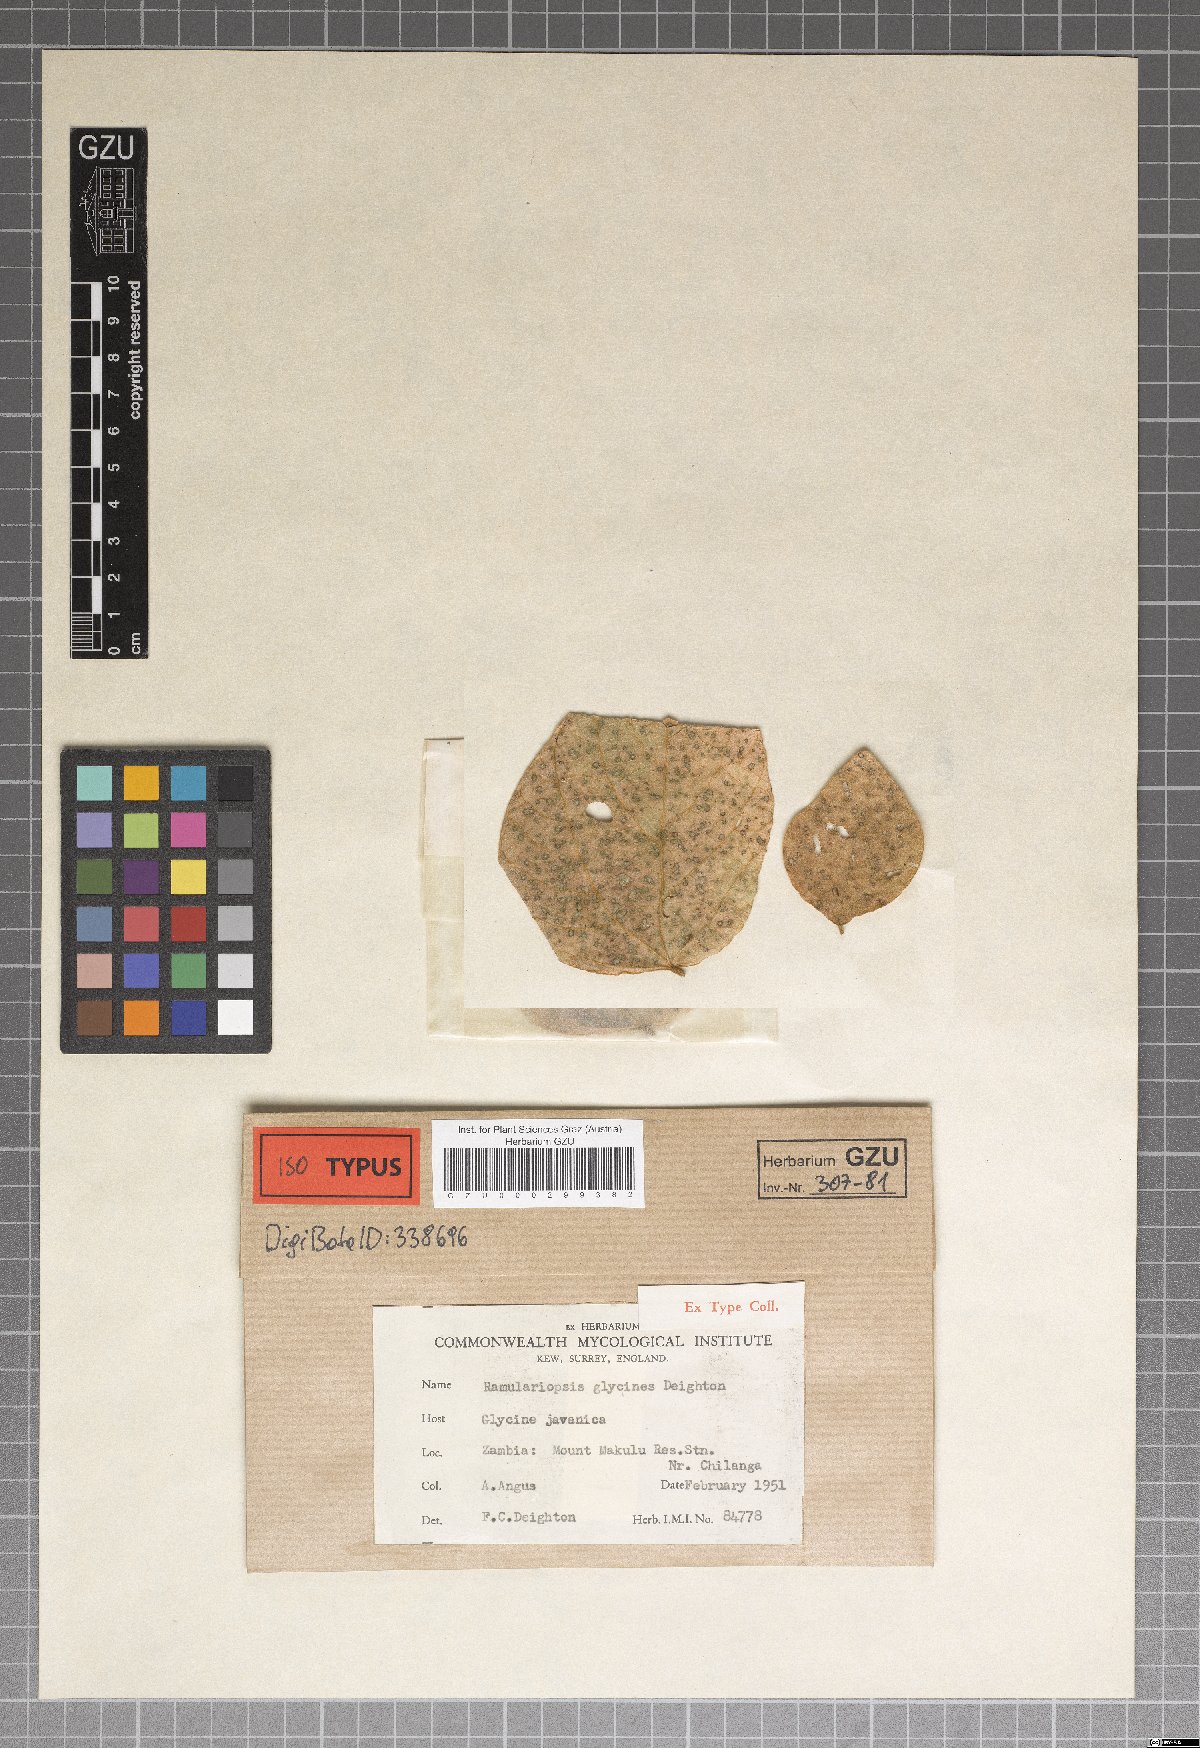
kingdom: Fungi
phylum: Ascomycota
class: Dothideomycetes
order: Mycosphaerellales
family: Mycosphaerellaceae
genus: Ramulariopsis
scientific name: Ramulariopsis glycines
